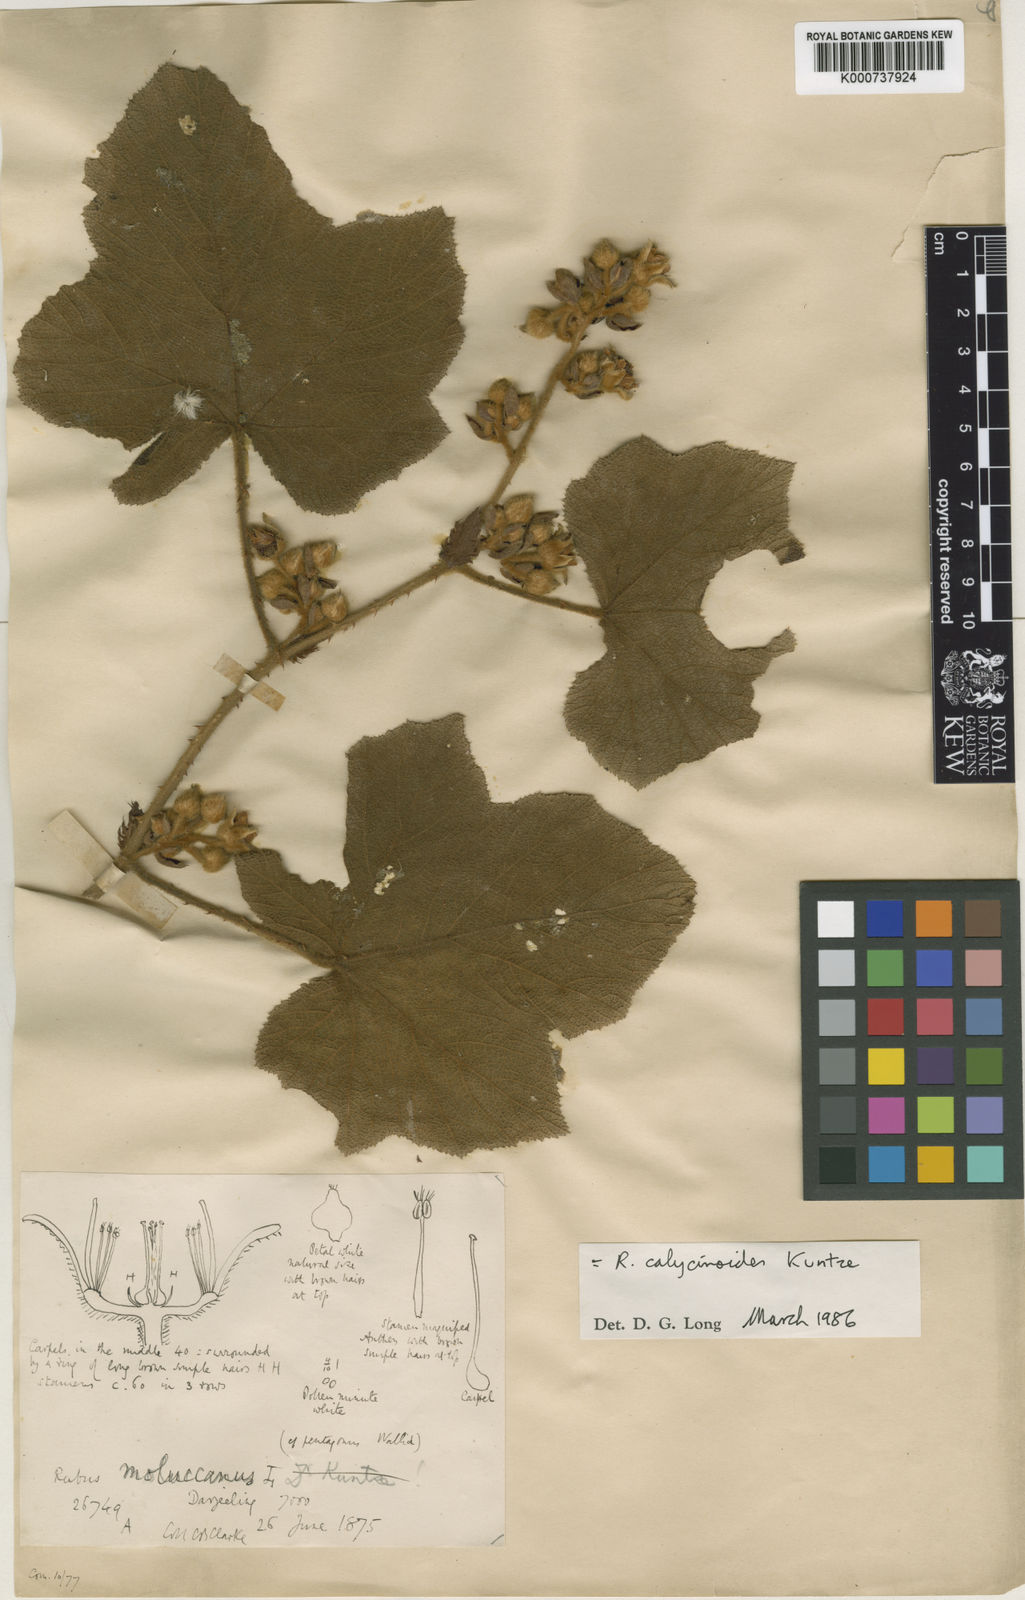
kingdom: Plantae
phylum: Tracheophyta
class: Magnoliopsida
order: Rosales
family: Rosaceae
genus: Rubus
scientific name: Rubus calycinoides
